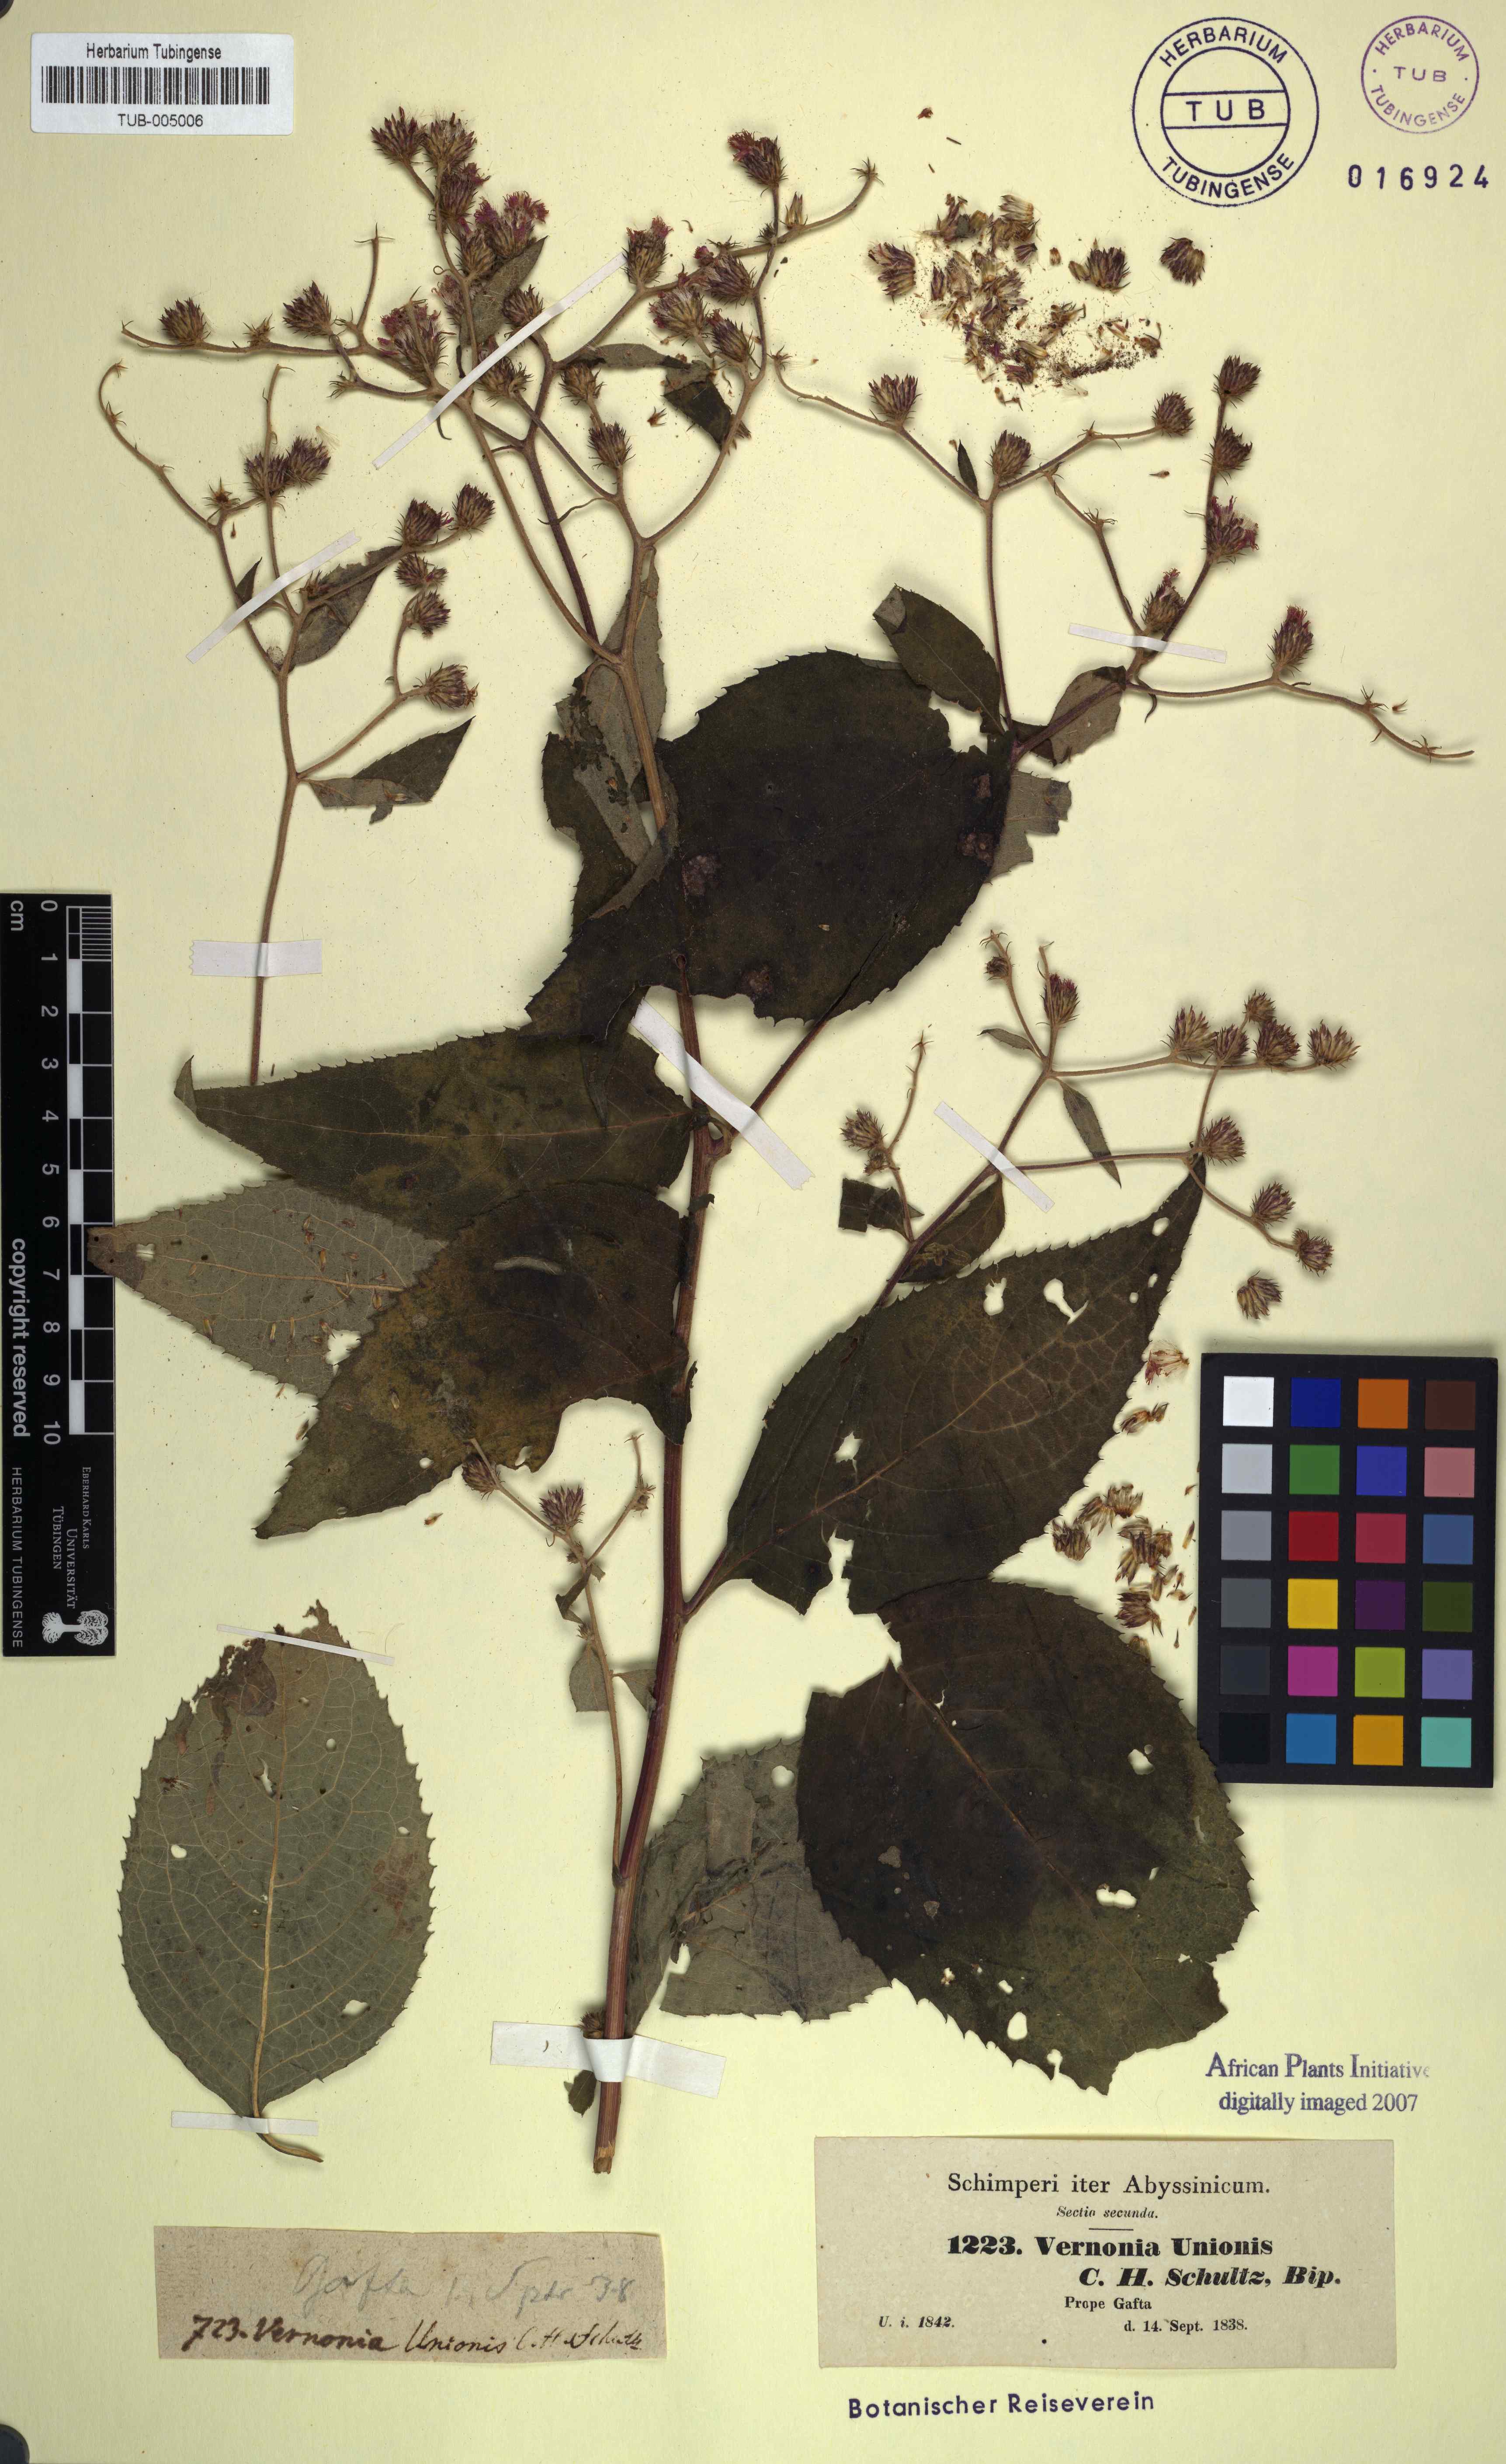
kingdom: Plantae
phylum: Tracheophyta
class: Magnoliopsida
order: Asterales
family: Asteraceae
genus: Orbivestus
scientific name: Orbivestus unionis
